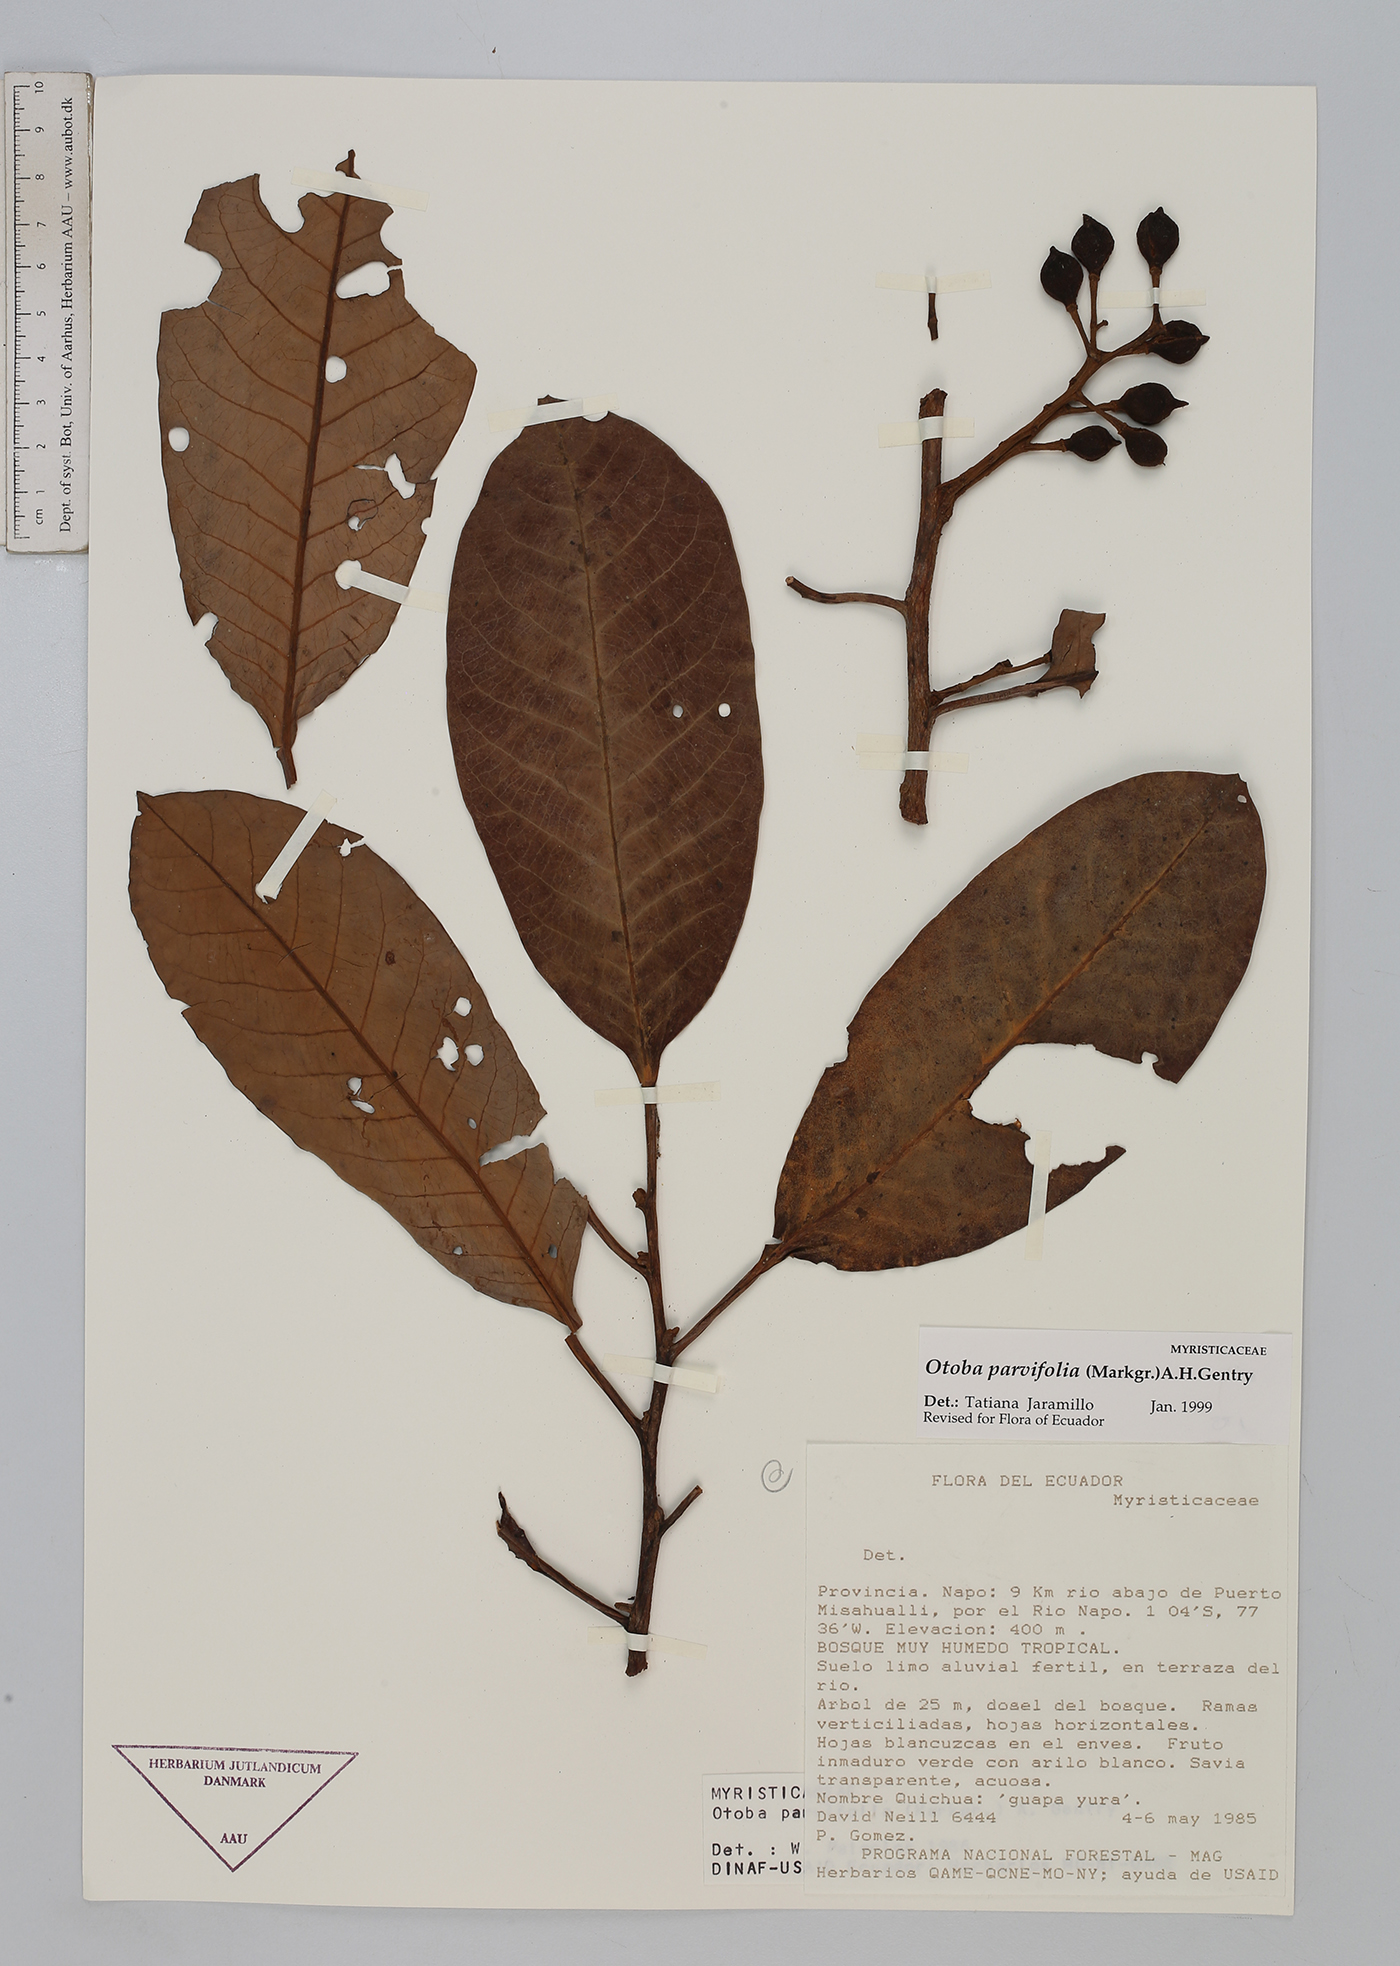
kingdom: Plantae
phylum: Tracheophyta
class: Magnoliopsida
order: Magnoliales
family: Myristicaceae
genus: Otoba
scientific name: Otoba parvifolia
